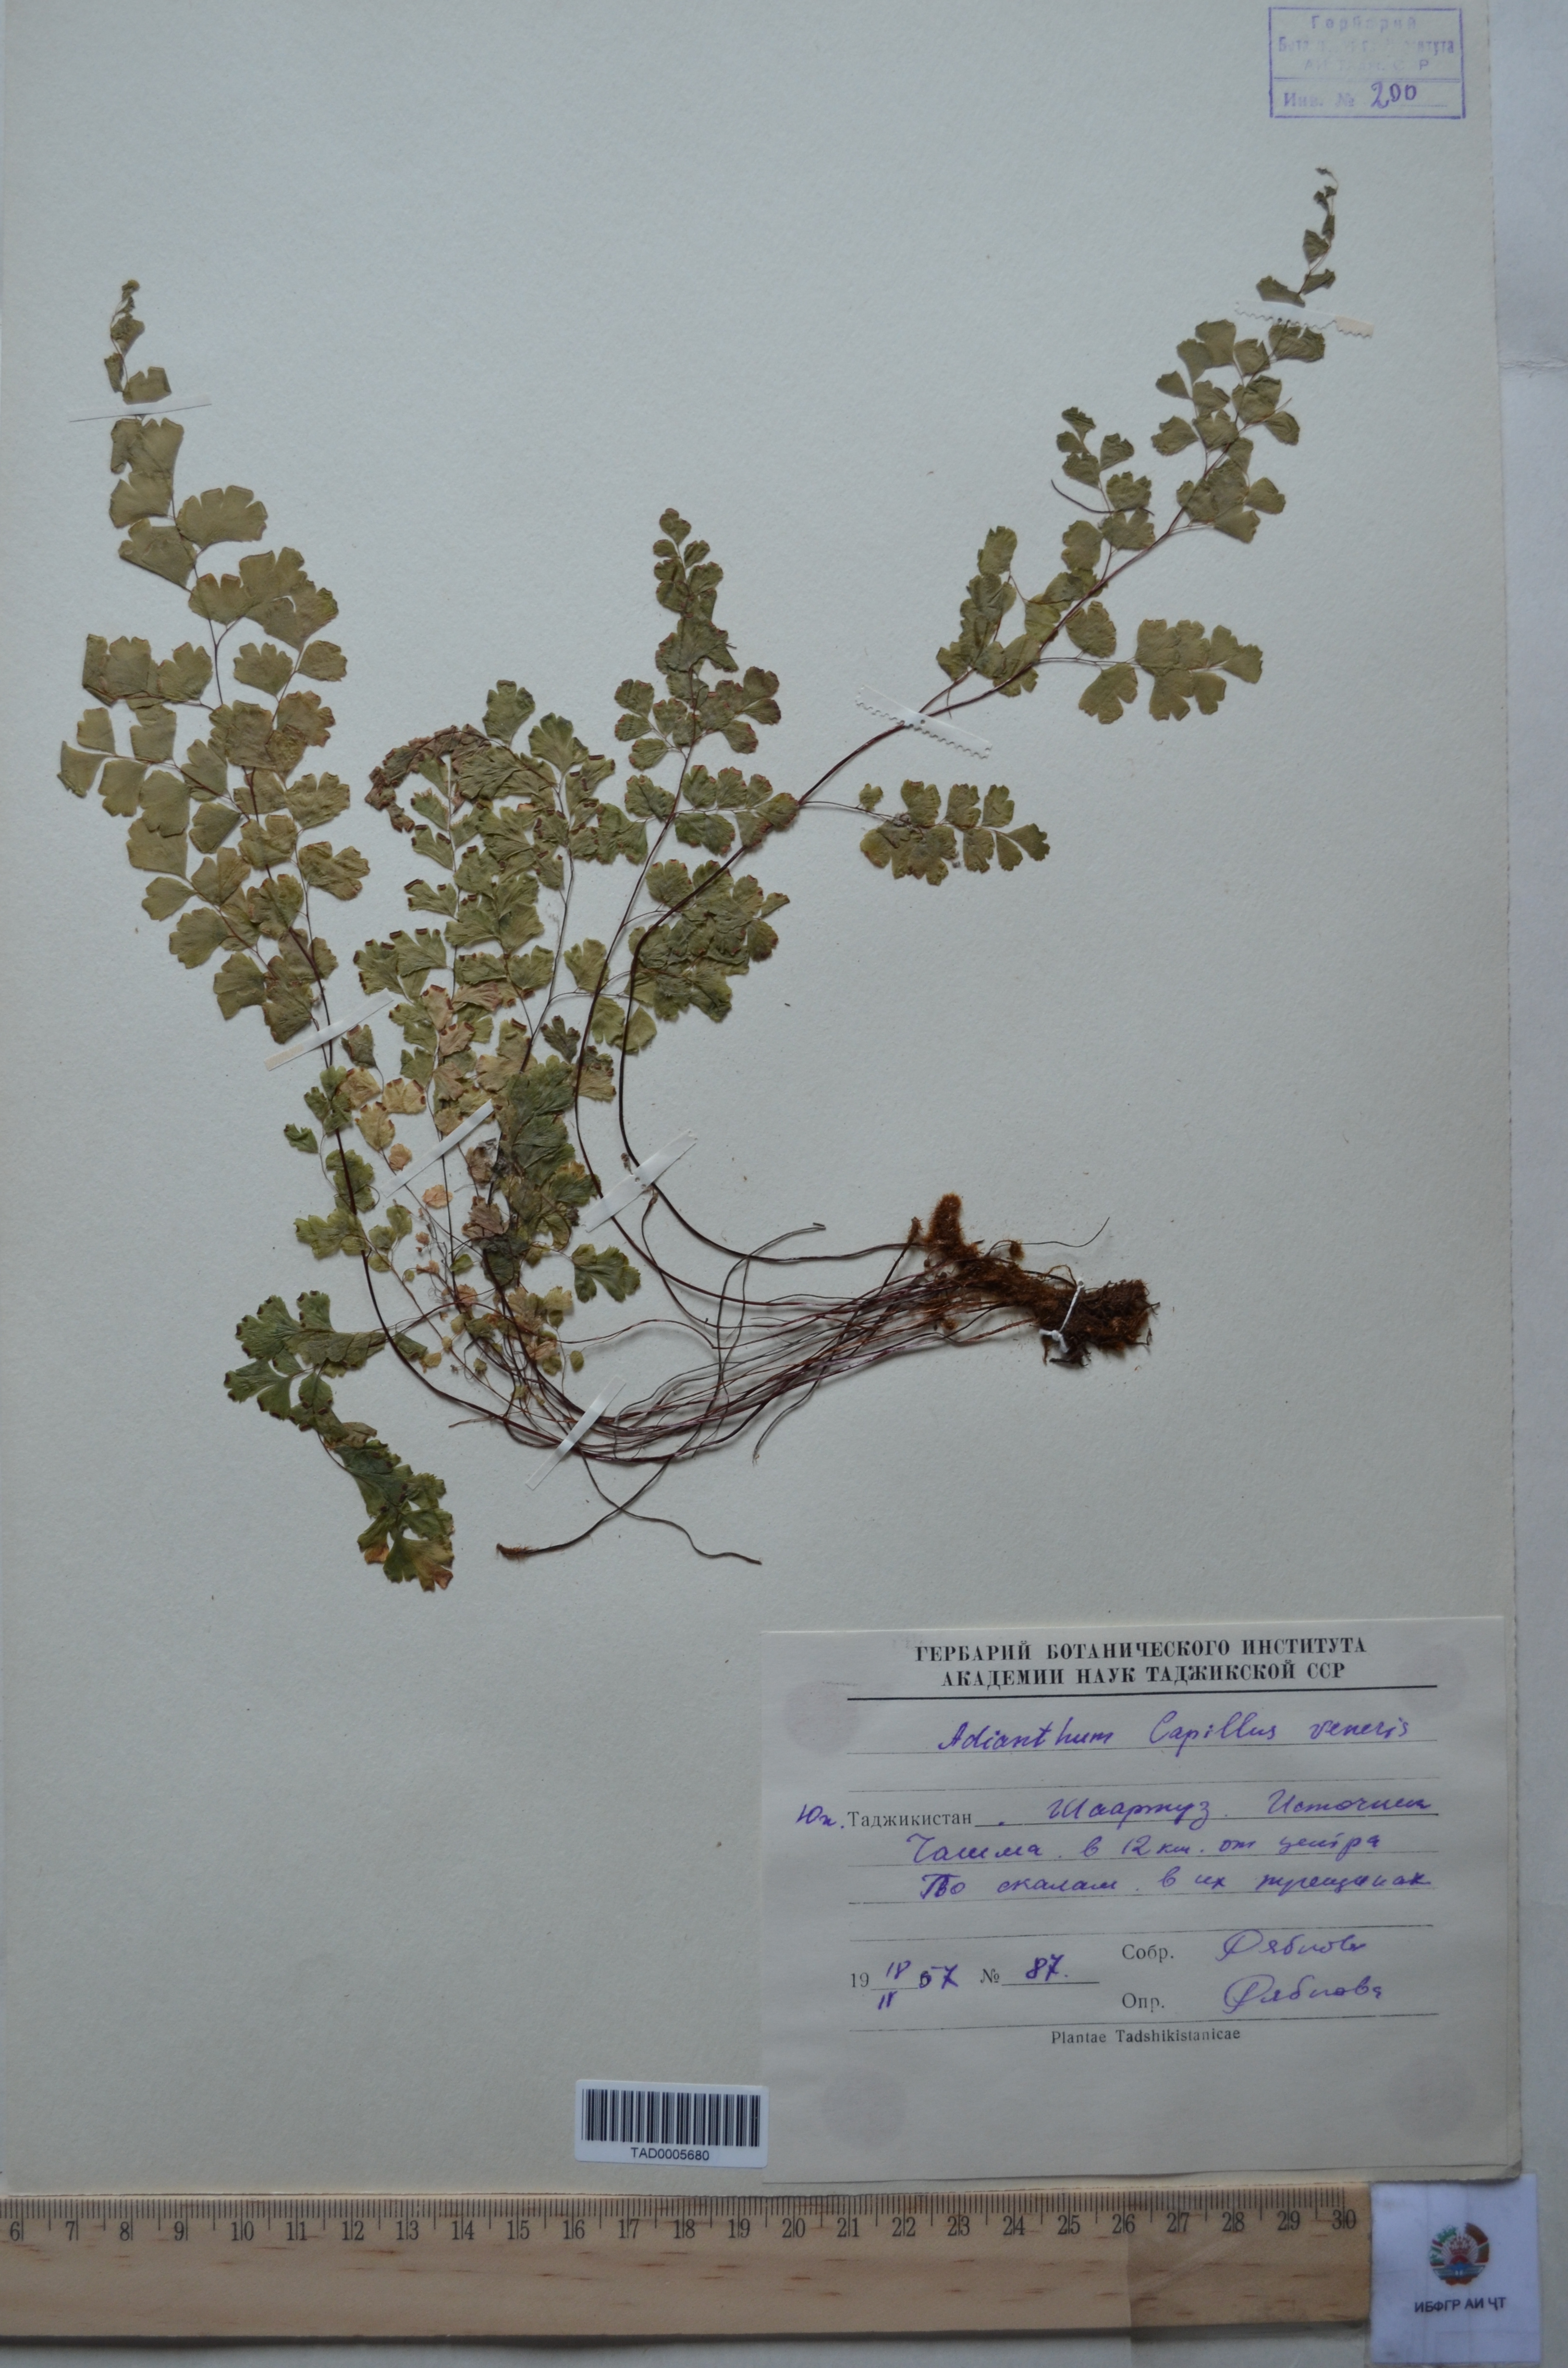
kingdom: Plantae
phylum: Tracheophyta
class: Polypodiopsida
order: Polypodiales
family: Pteridaceae
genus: Adiantum
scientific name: Adiantum capillus-veneris
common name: Maidenhair fern
